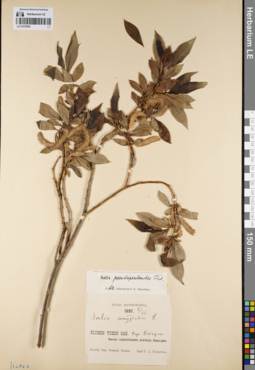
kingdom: Plantae
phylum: Tracheophyta
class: Magnoliopsida
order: Malpighiales
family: Salicaceae
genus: Salix
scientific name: Salix pseudopentandra
